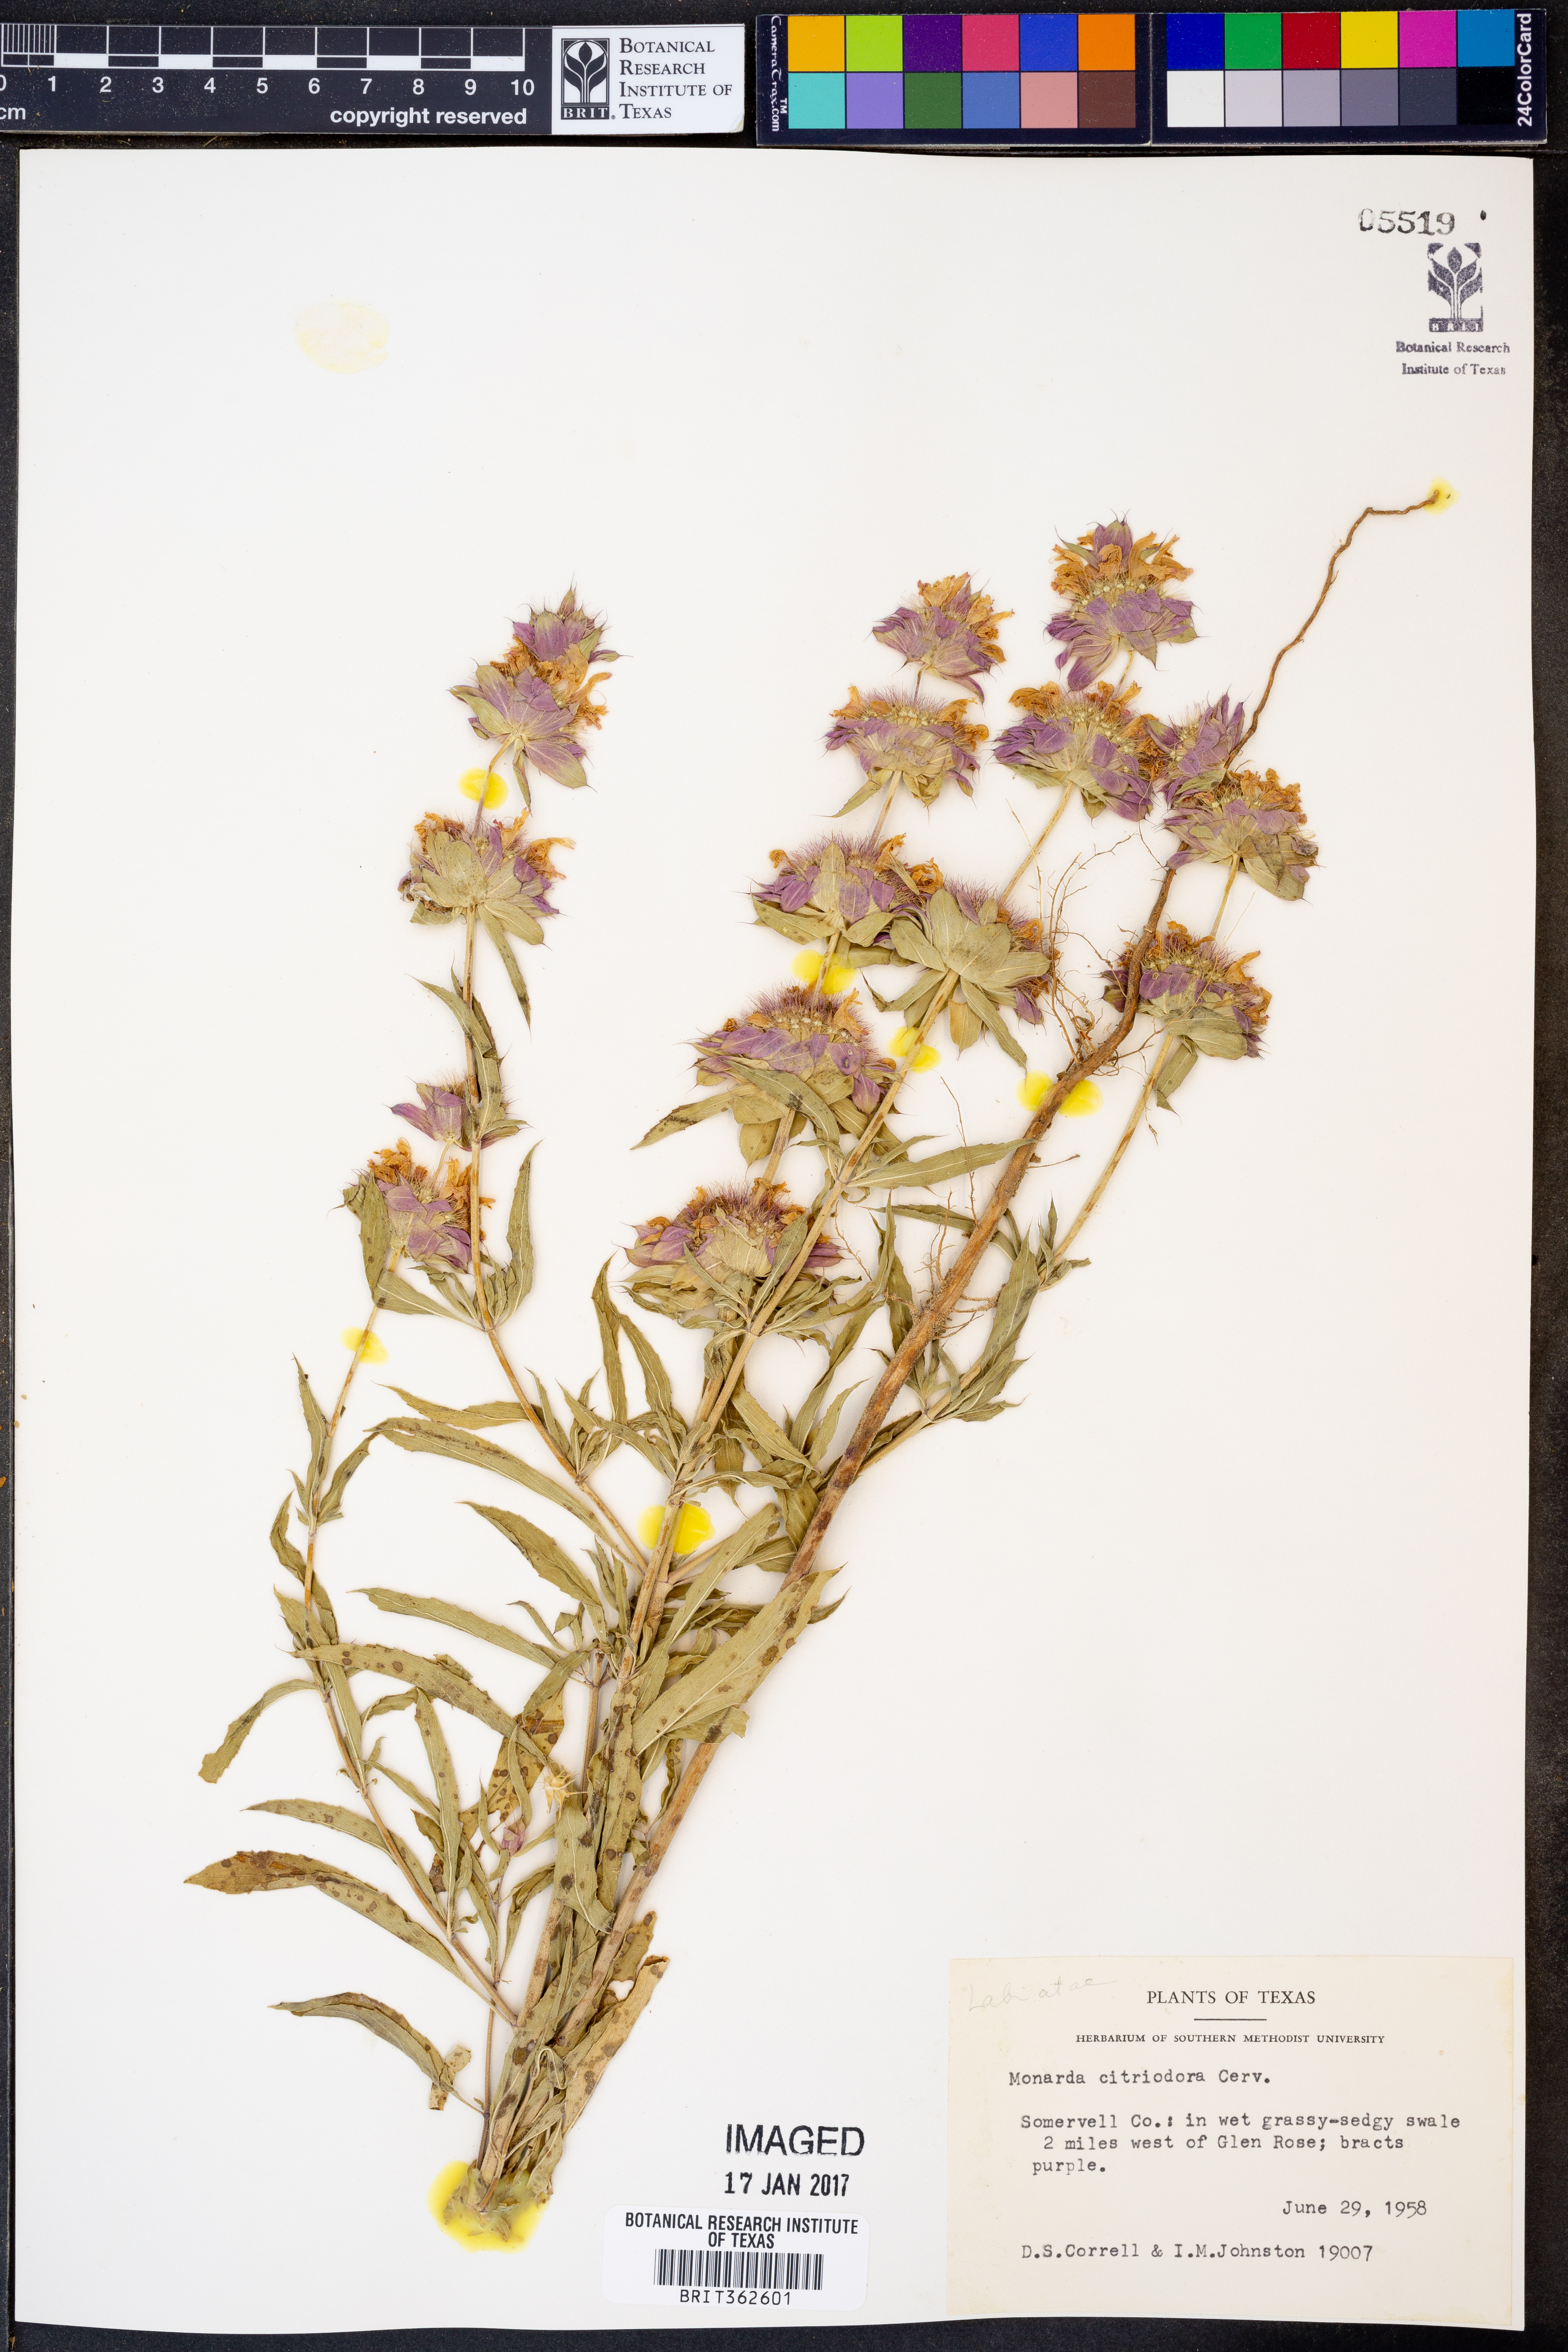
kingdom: Plantae
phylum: Tracheophyta
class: Magnoliopsida
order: Lamiales
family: Lamiaceae
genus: Monarda
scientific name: Monarda citriodora
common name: Lemon beebalm
